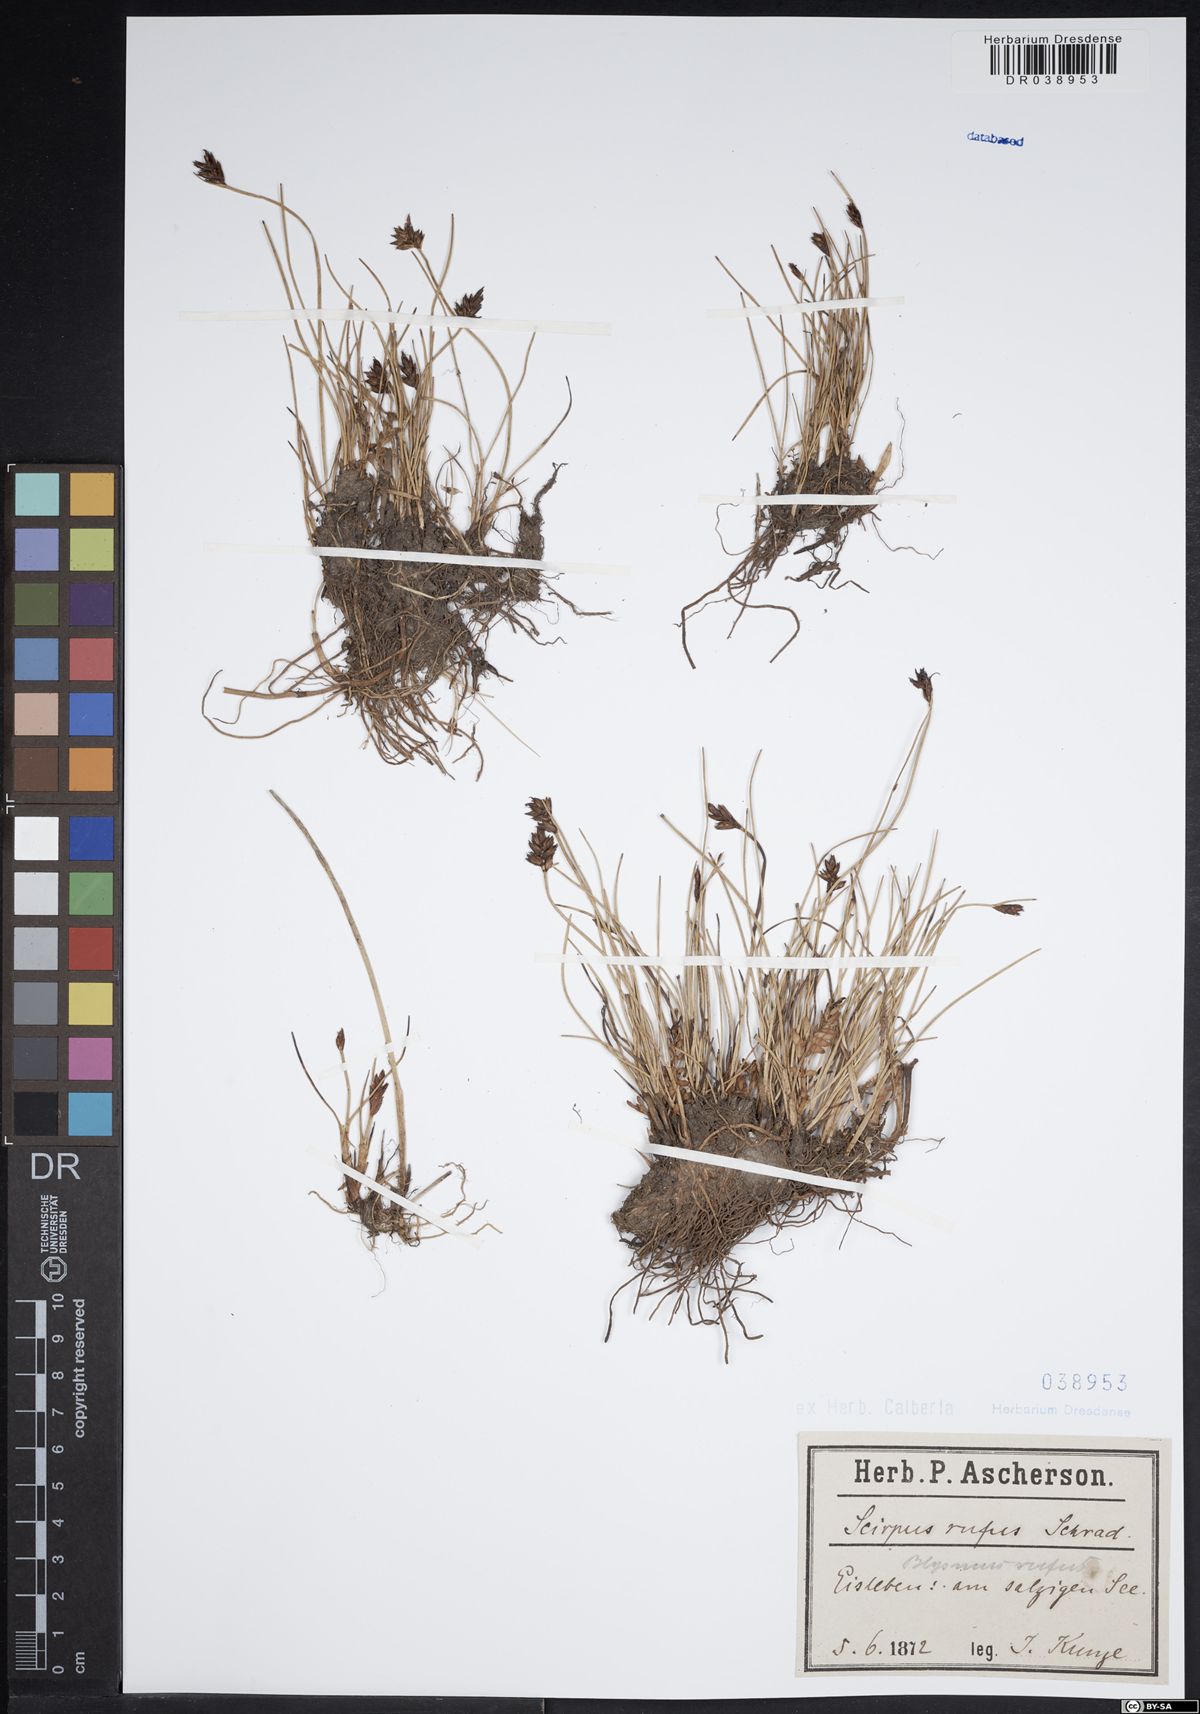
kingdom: Plantae
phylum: Tracheophyta
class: Liliopsida
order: Poales
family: Cyperaceae
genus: Blysmus
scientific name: Blysmus rufus
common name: Saltmarsh flat-sedge
